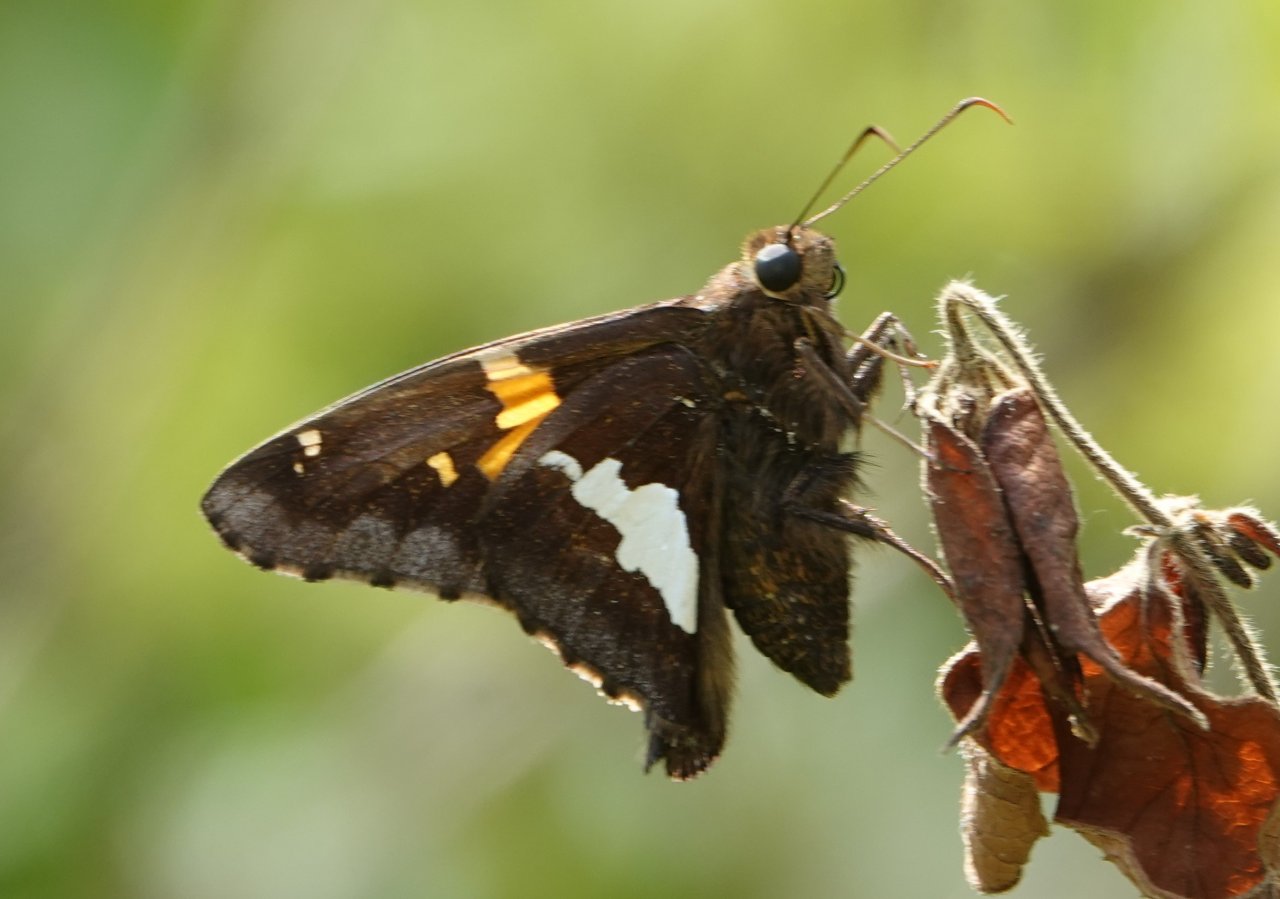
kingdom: Animalia
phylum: Arthropoda
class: Insecta
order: Lepidoptera
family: Hesperiidae
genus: Epargyreus
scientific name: Epargyreus clarus
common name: Silver-spotted Skipper
